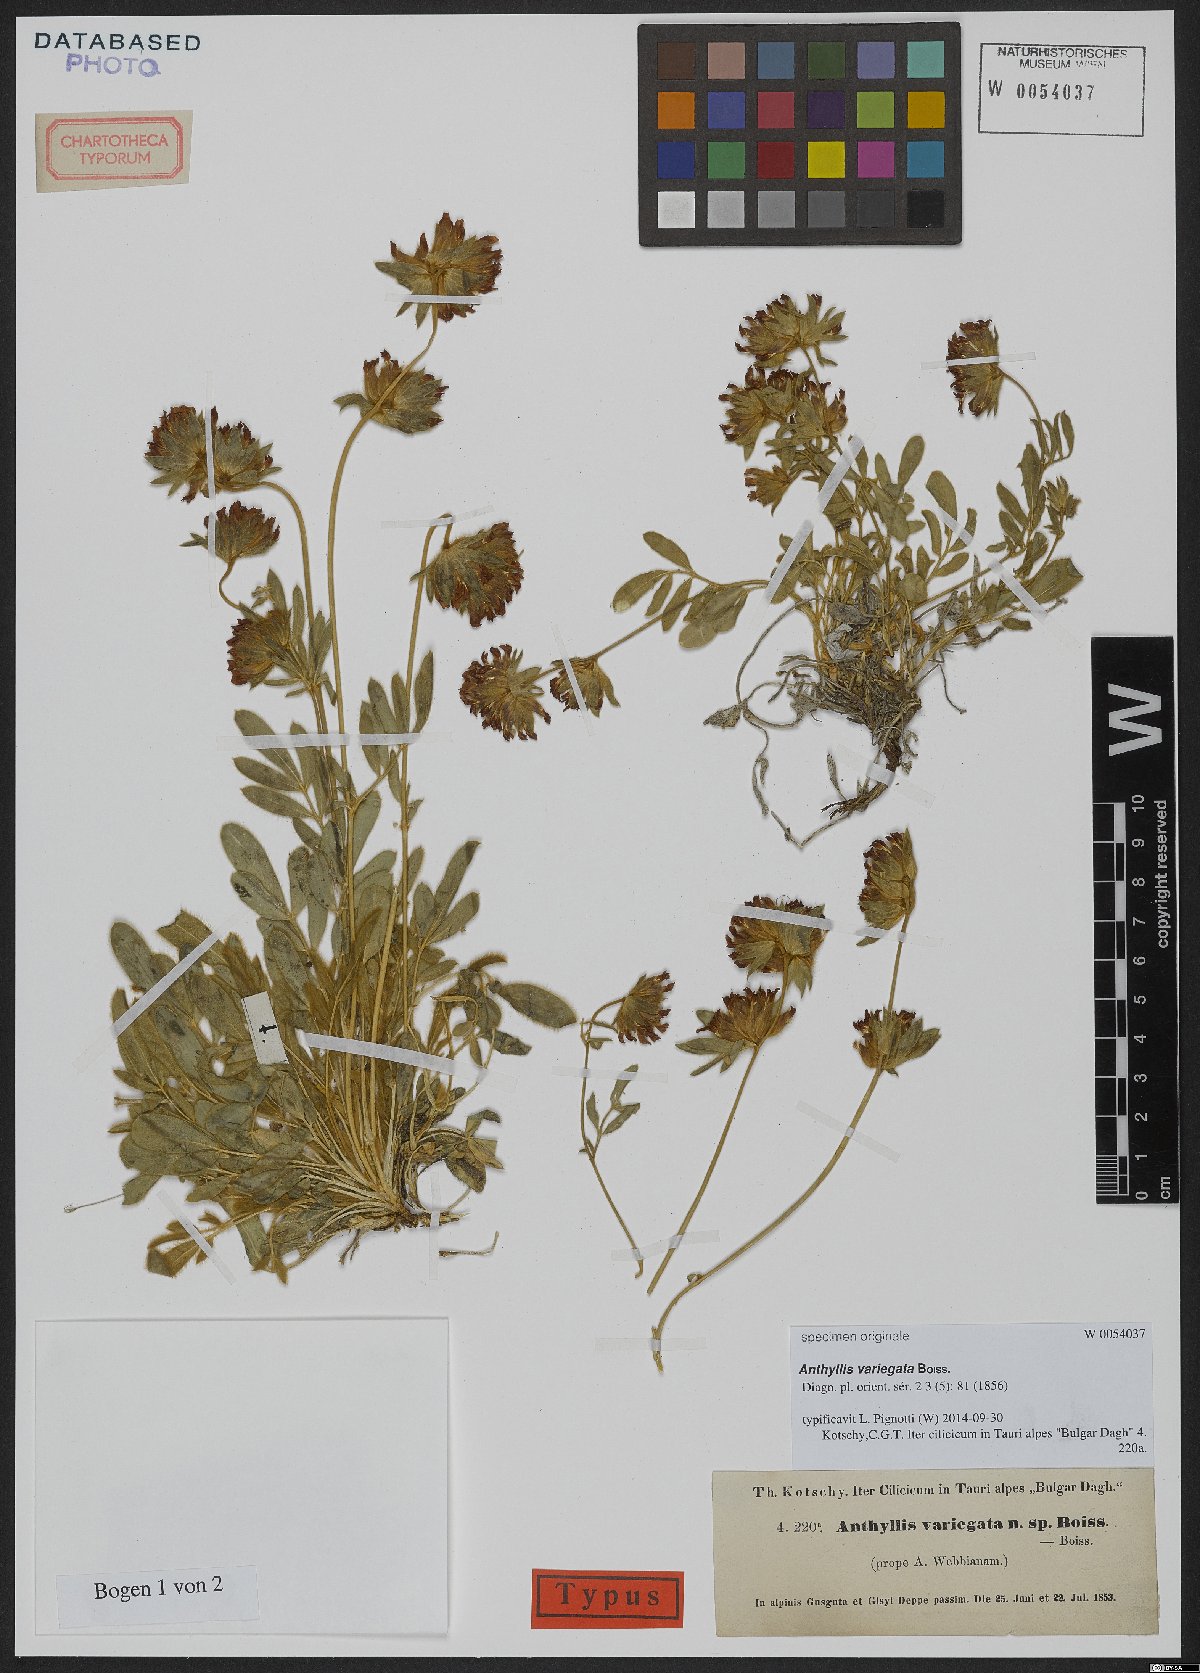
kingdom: Plantae
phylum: Tracheophyta
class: Magnoliopsida
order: Fabales
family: Fabaceae
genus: Anthyllis
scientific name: Anthyllis variegata
